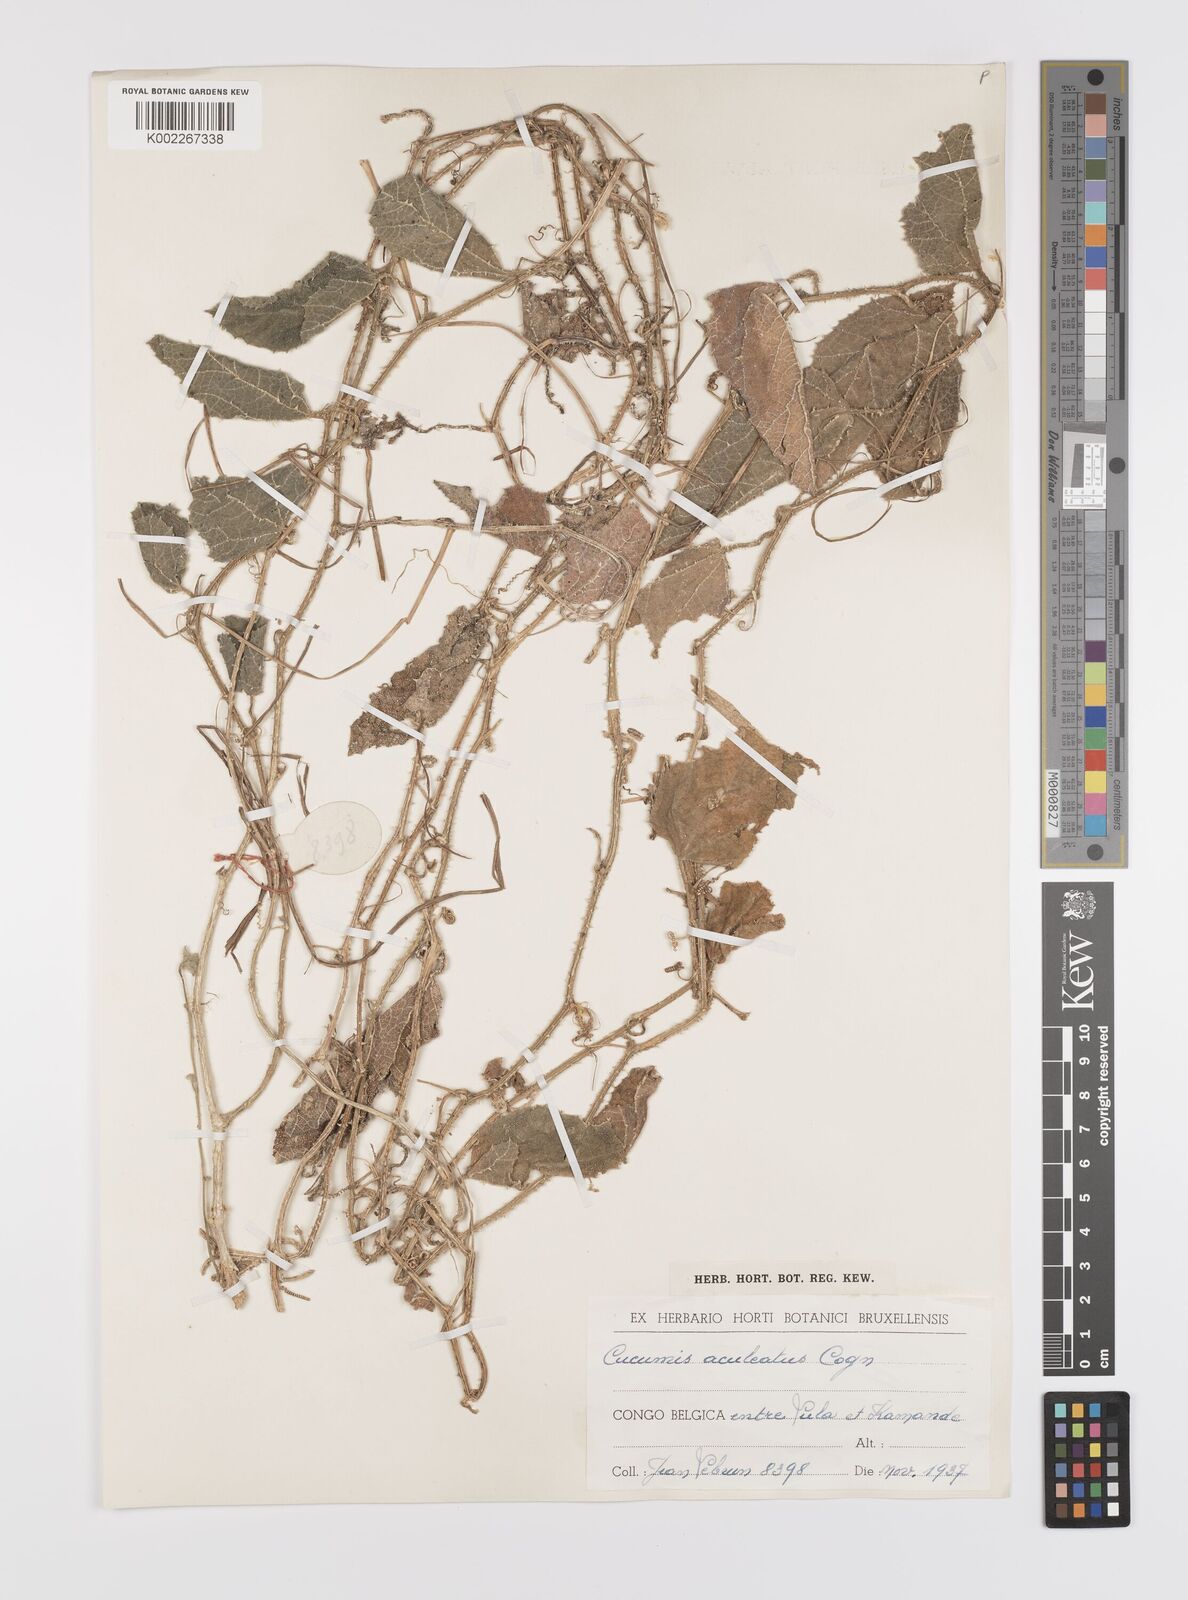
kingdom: Plantae
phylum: Tracheophyta
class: Magnoliopsida
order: Cucurbitales
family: Cucurbitaceae
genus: Cucumis
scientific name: Cucumis aculeatus
